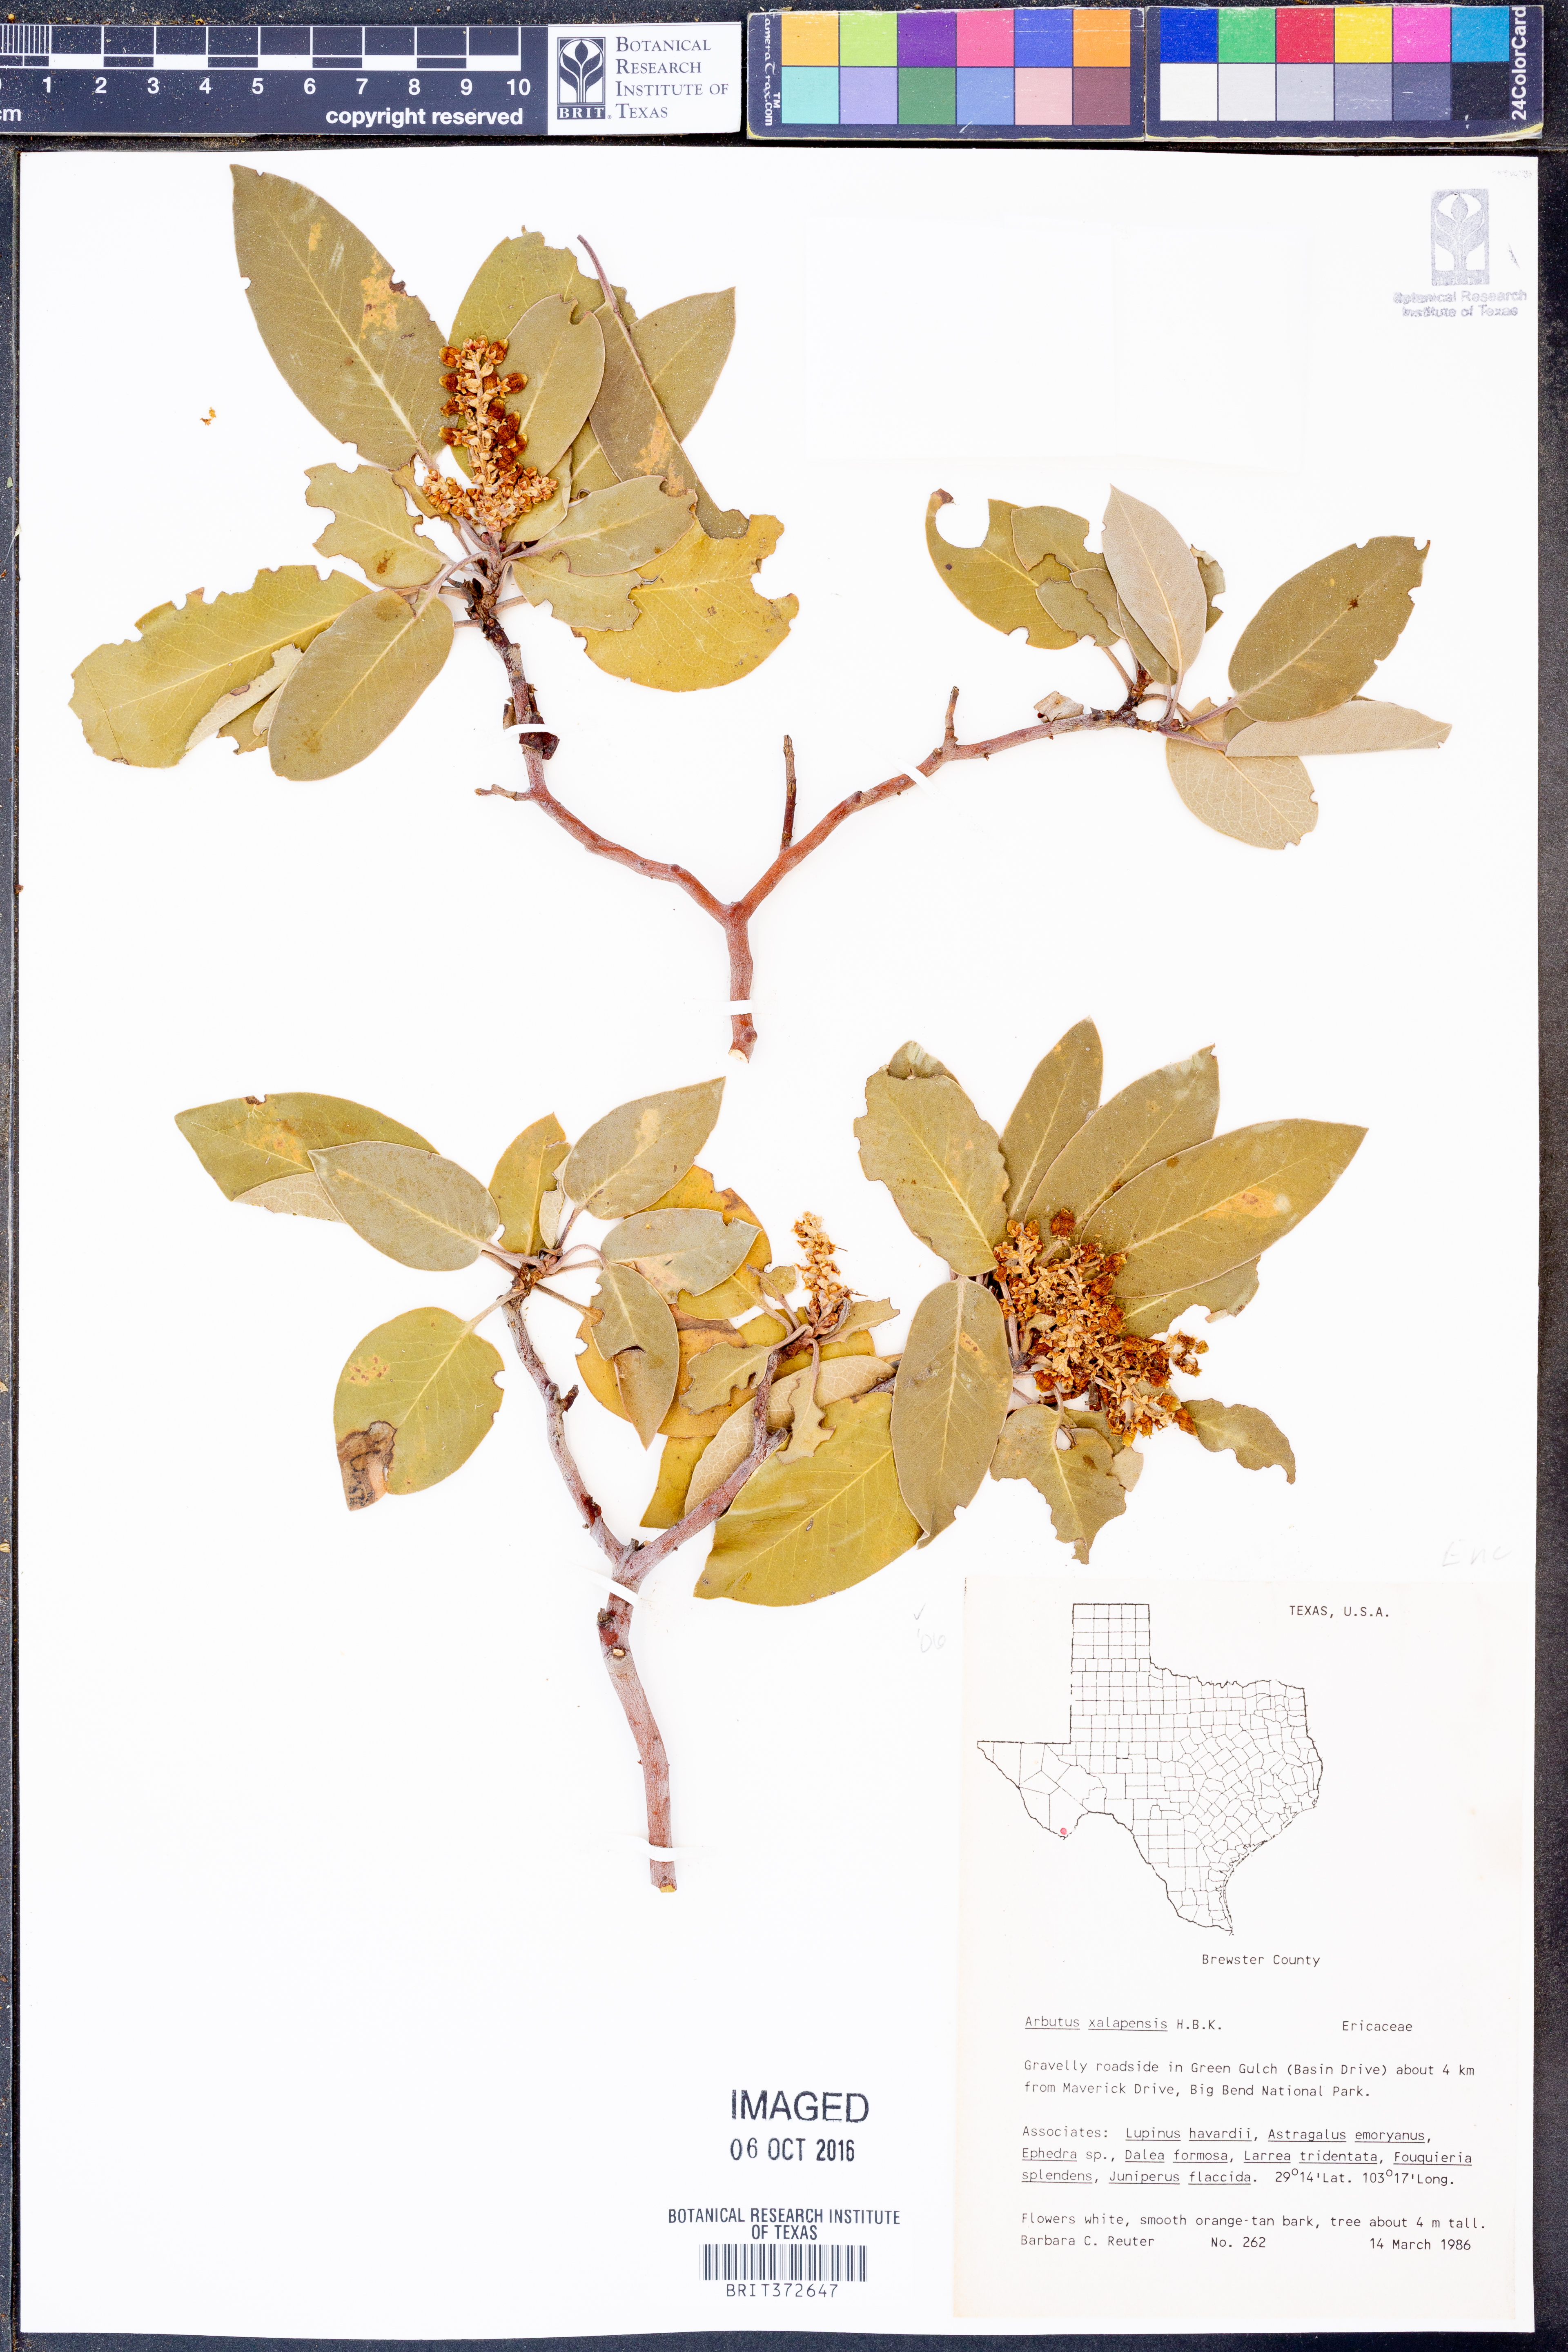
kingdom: Plantae
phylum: Tracheophyta
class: Magnoliopsida
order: Ericales
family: Ericaceae
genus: Arbutus
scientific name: Arbutus xalapensis
